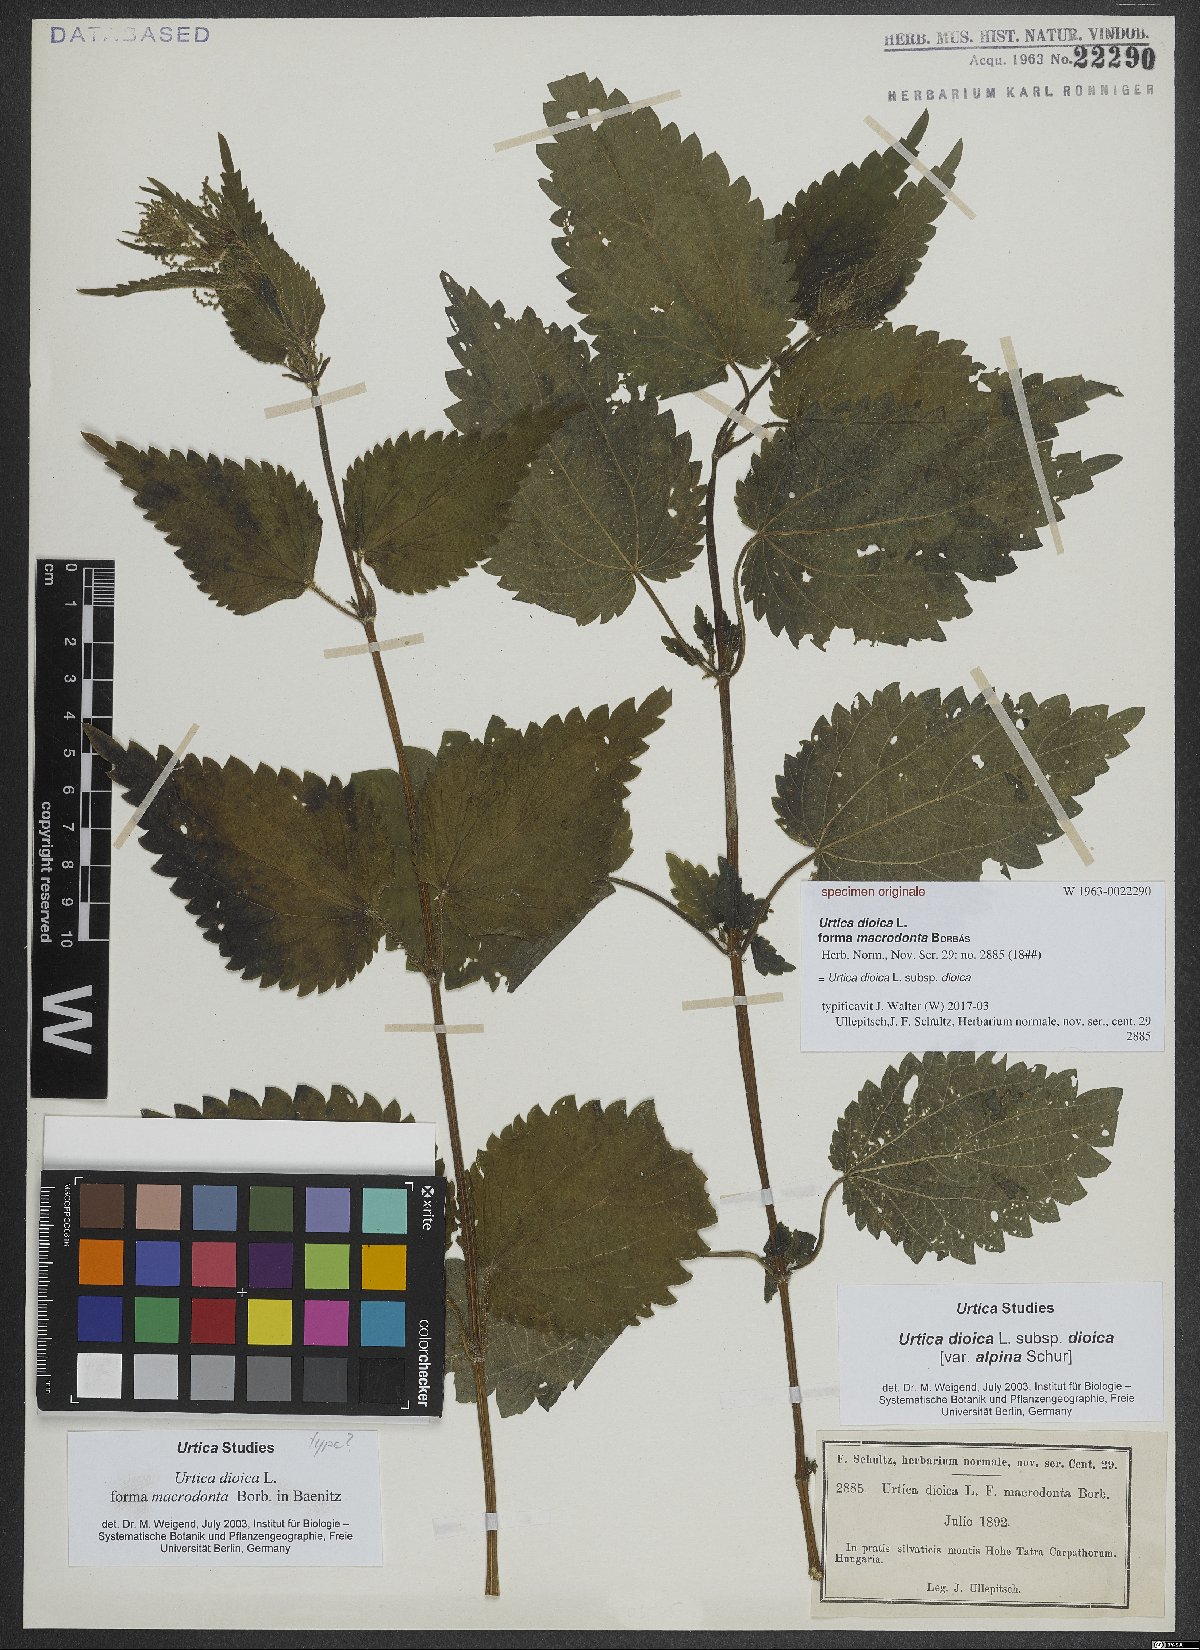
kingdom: Plantae
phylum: Tracheophyta
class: Magnoliopsida
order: Rosales
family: Urticaceae
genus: Urtica
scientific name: Urtica dioica
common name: Common nettle
